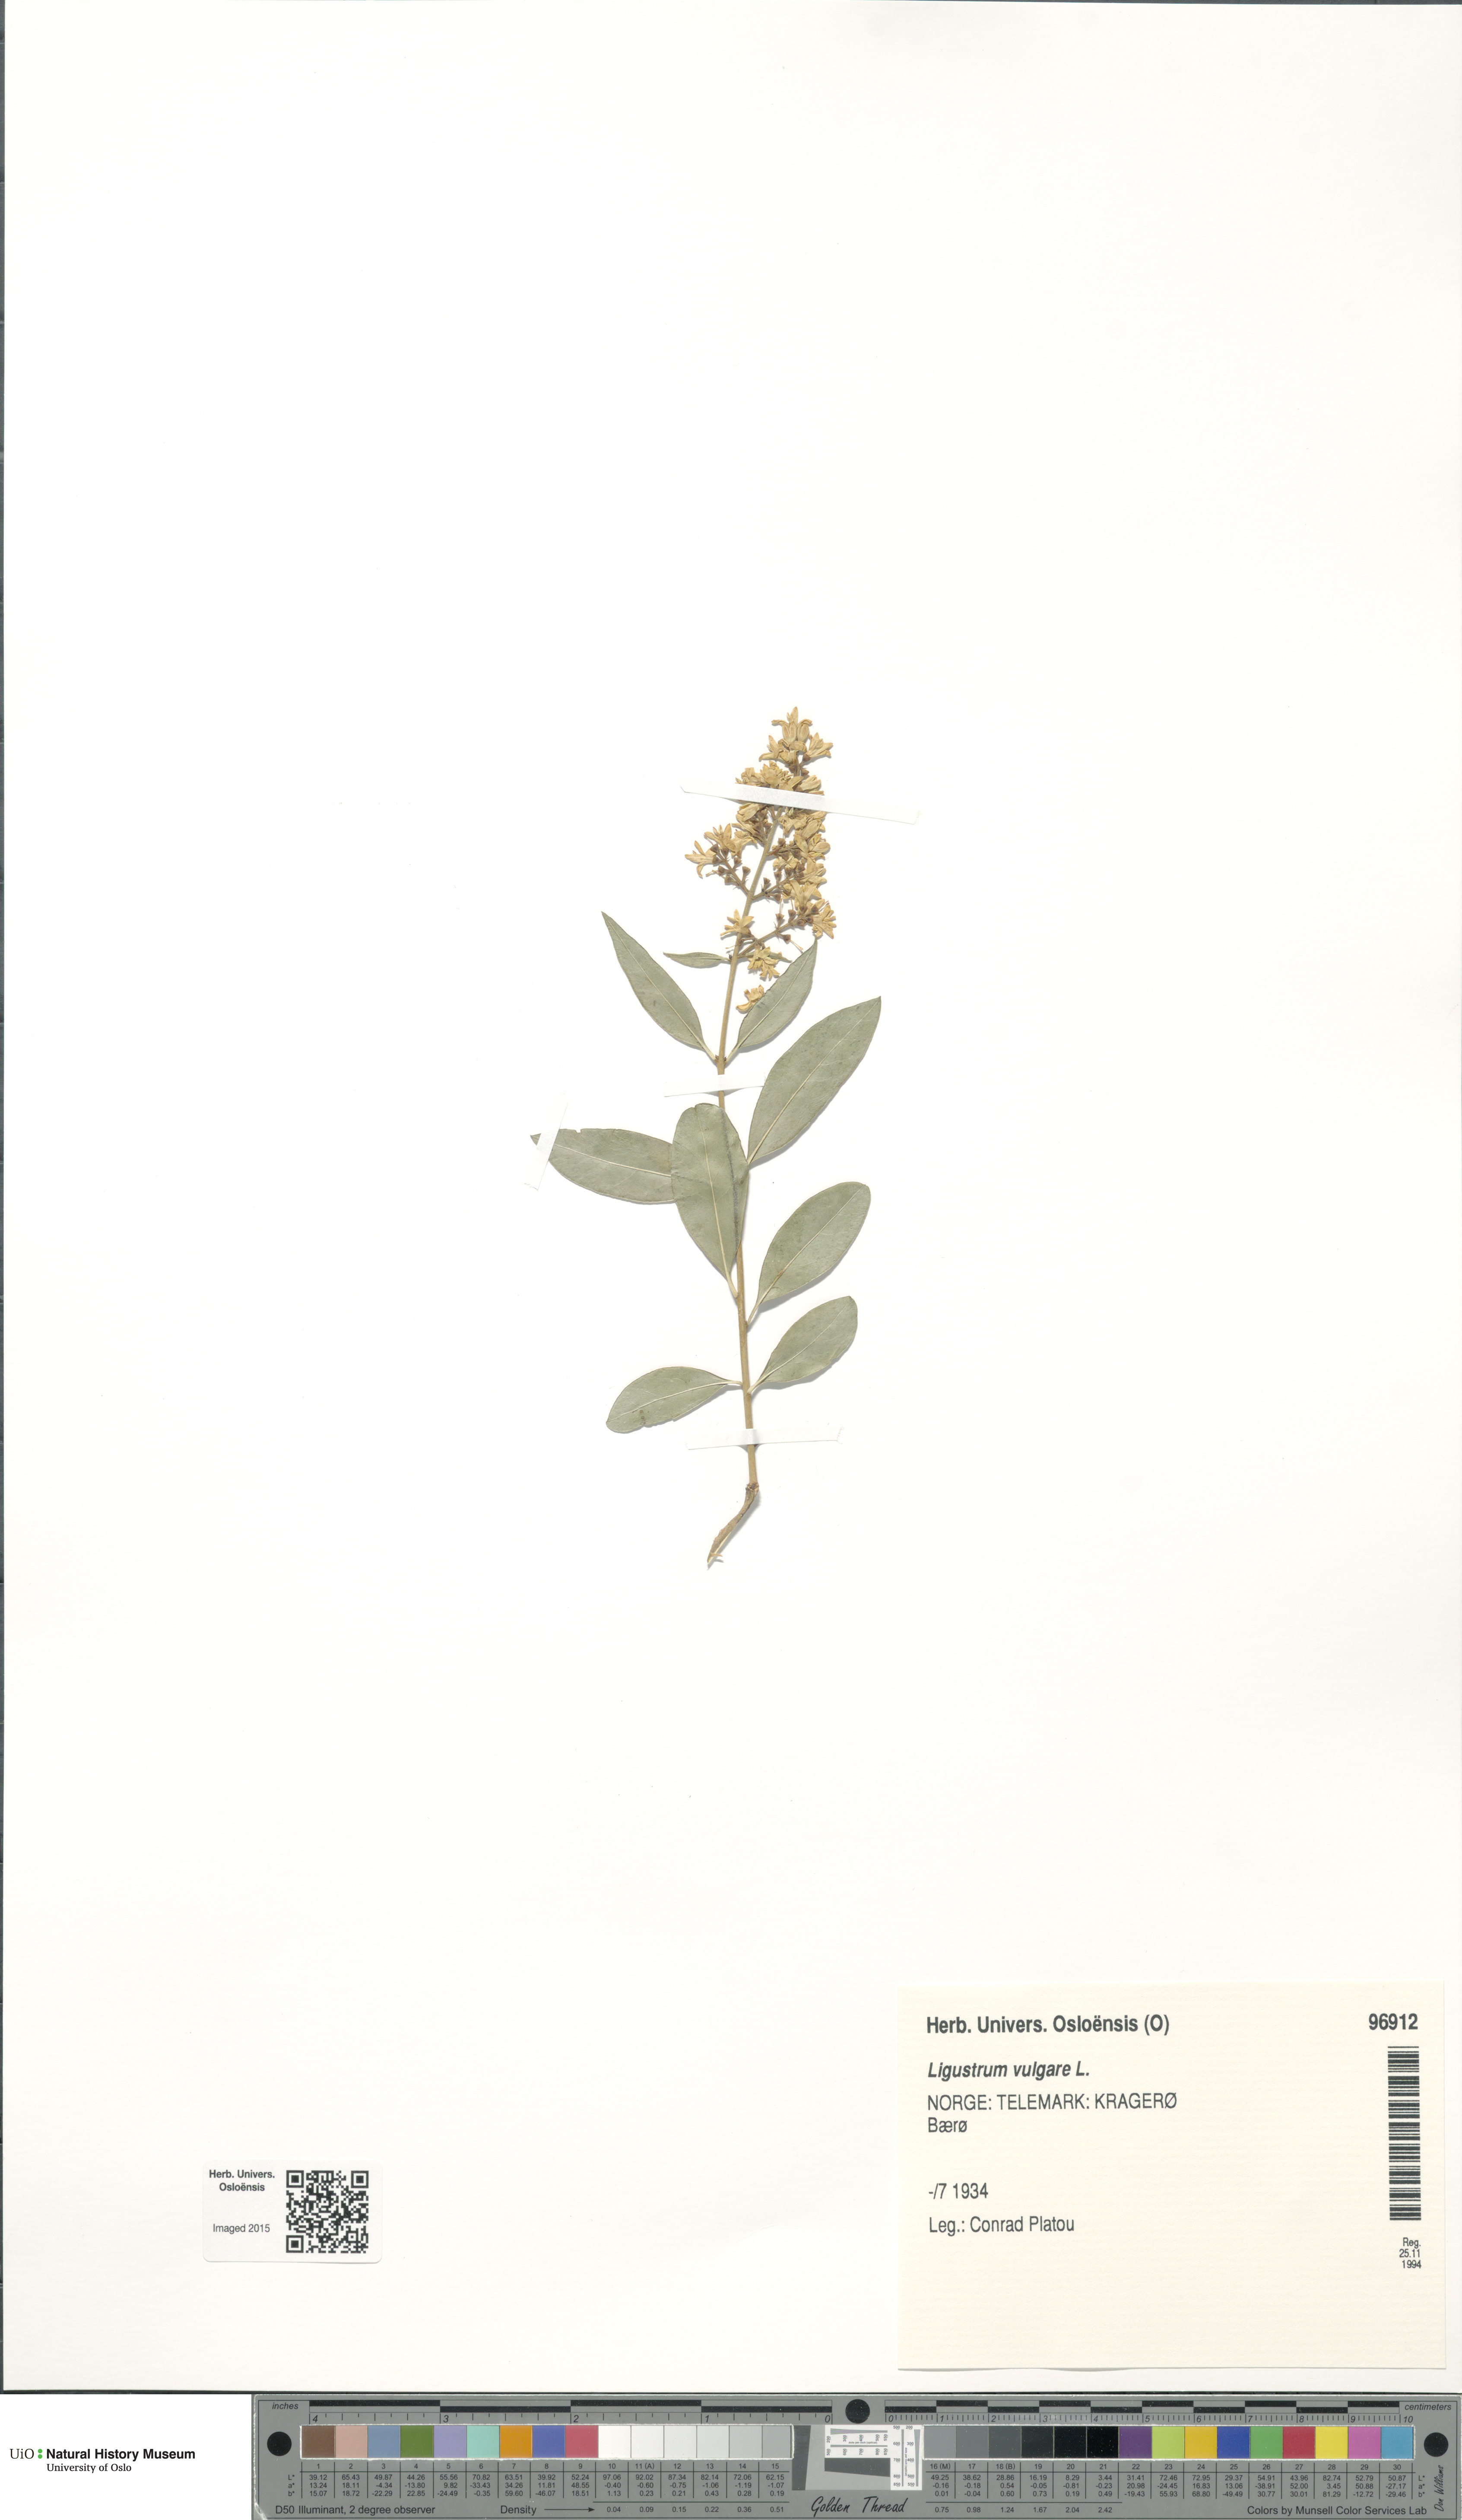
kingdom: Plantae
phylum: Tracheophyta
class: Magnoliopsida
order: Lamiales
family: Oleaceae
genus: Ligustrum
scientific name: Ligustrum vulgare
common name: Wild privet
